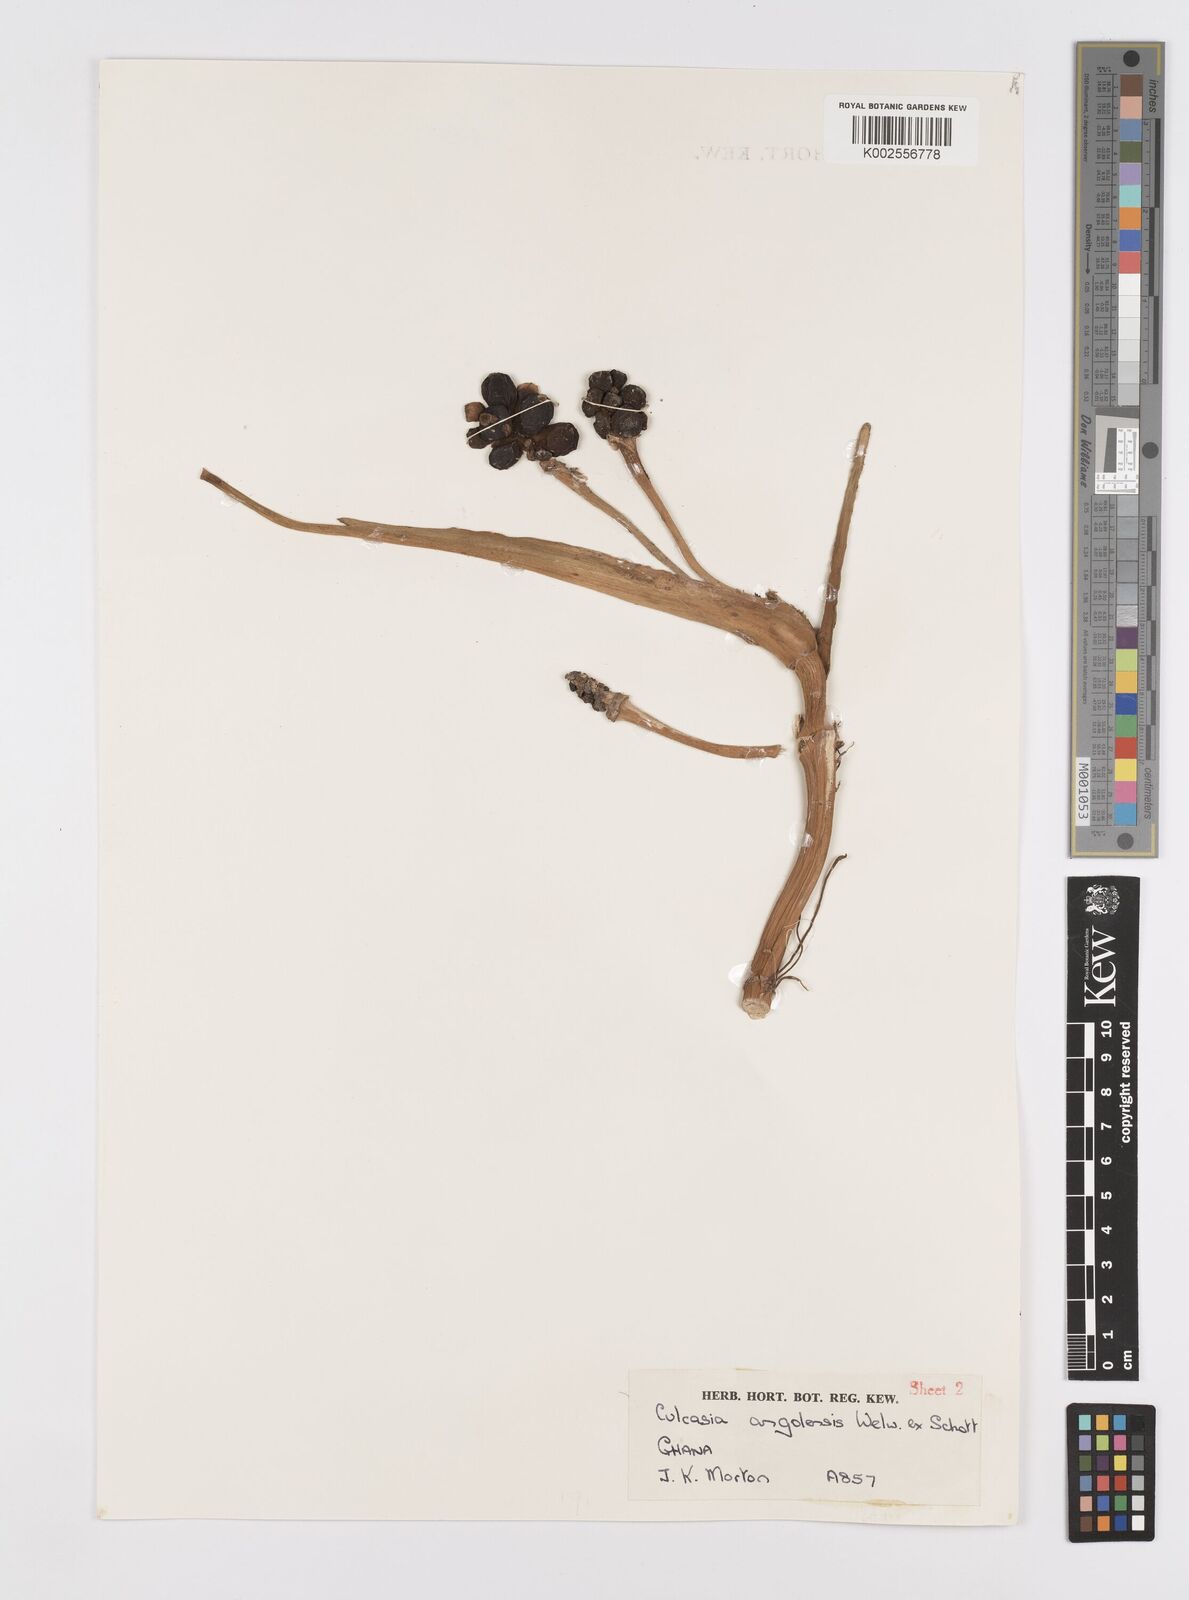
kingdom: Plantae
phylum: Tracheophyta
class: Liliopsida
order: Alismatales
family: Araceae
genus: Culcasia
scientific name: Culcasia angolensis
